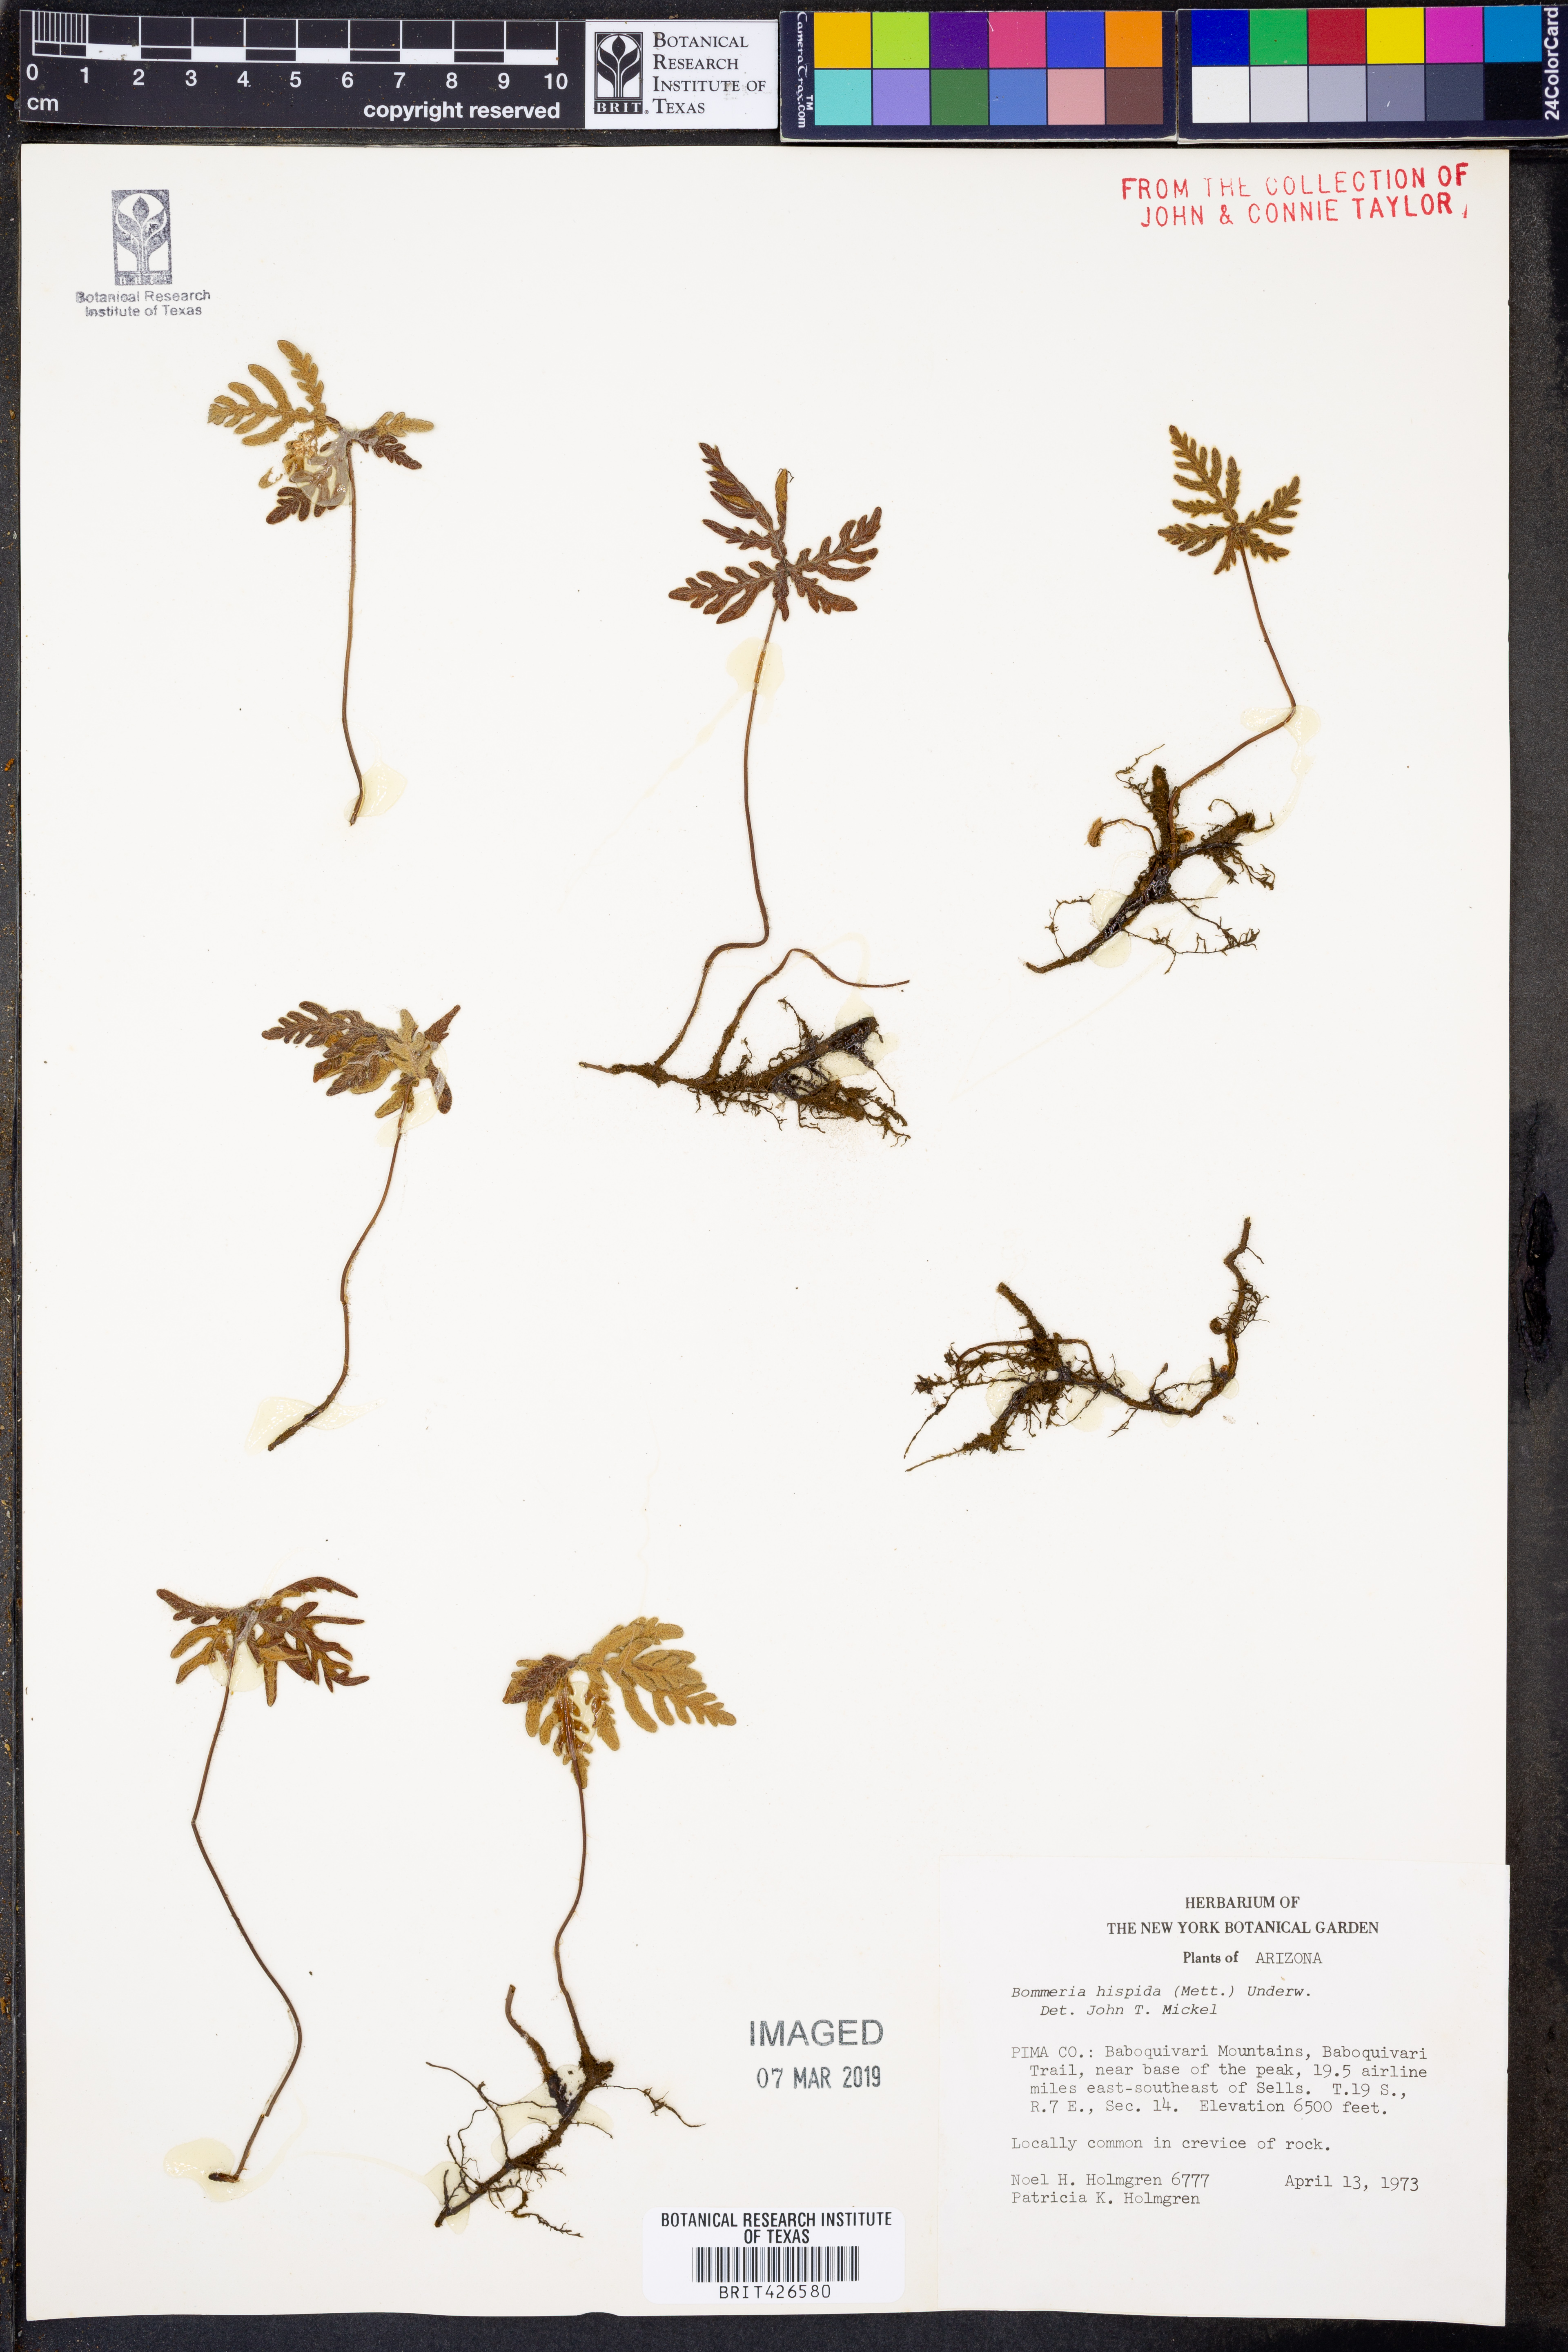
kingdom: Plantae
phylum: Tracheophyta
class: Polypodiopsida
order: Polypodiales
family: Pteridaceae
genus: Bommeria
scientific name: Bommeria hispida
